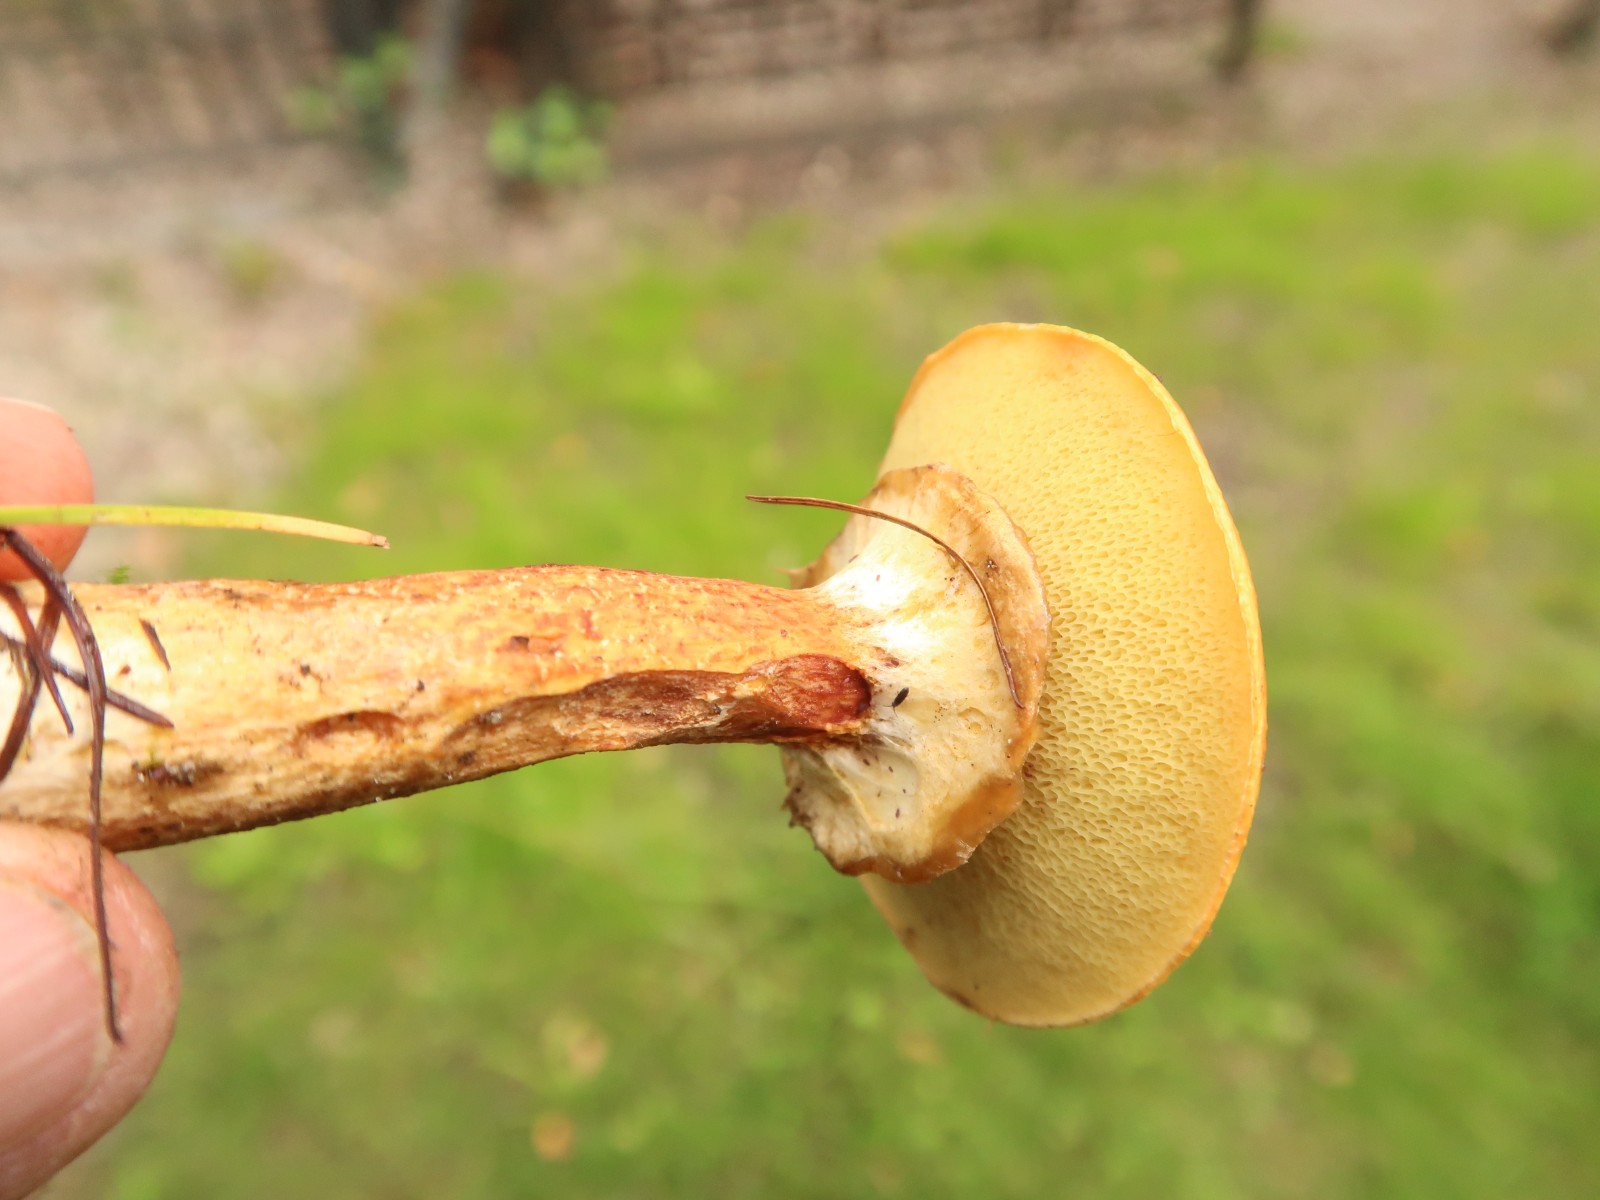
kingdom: Fungi
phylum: Basidiomycota
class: Agaricomycetes
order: Boletales
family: Suillaceae
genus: Suillus
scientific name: Suillus grevillei
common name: lærke-slimrørhat
